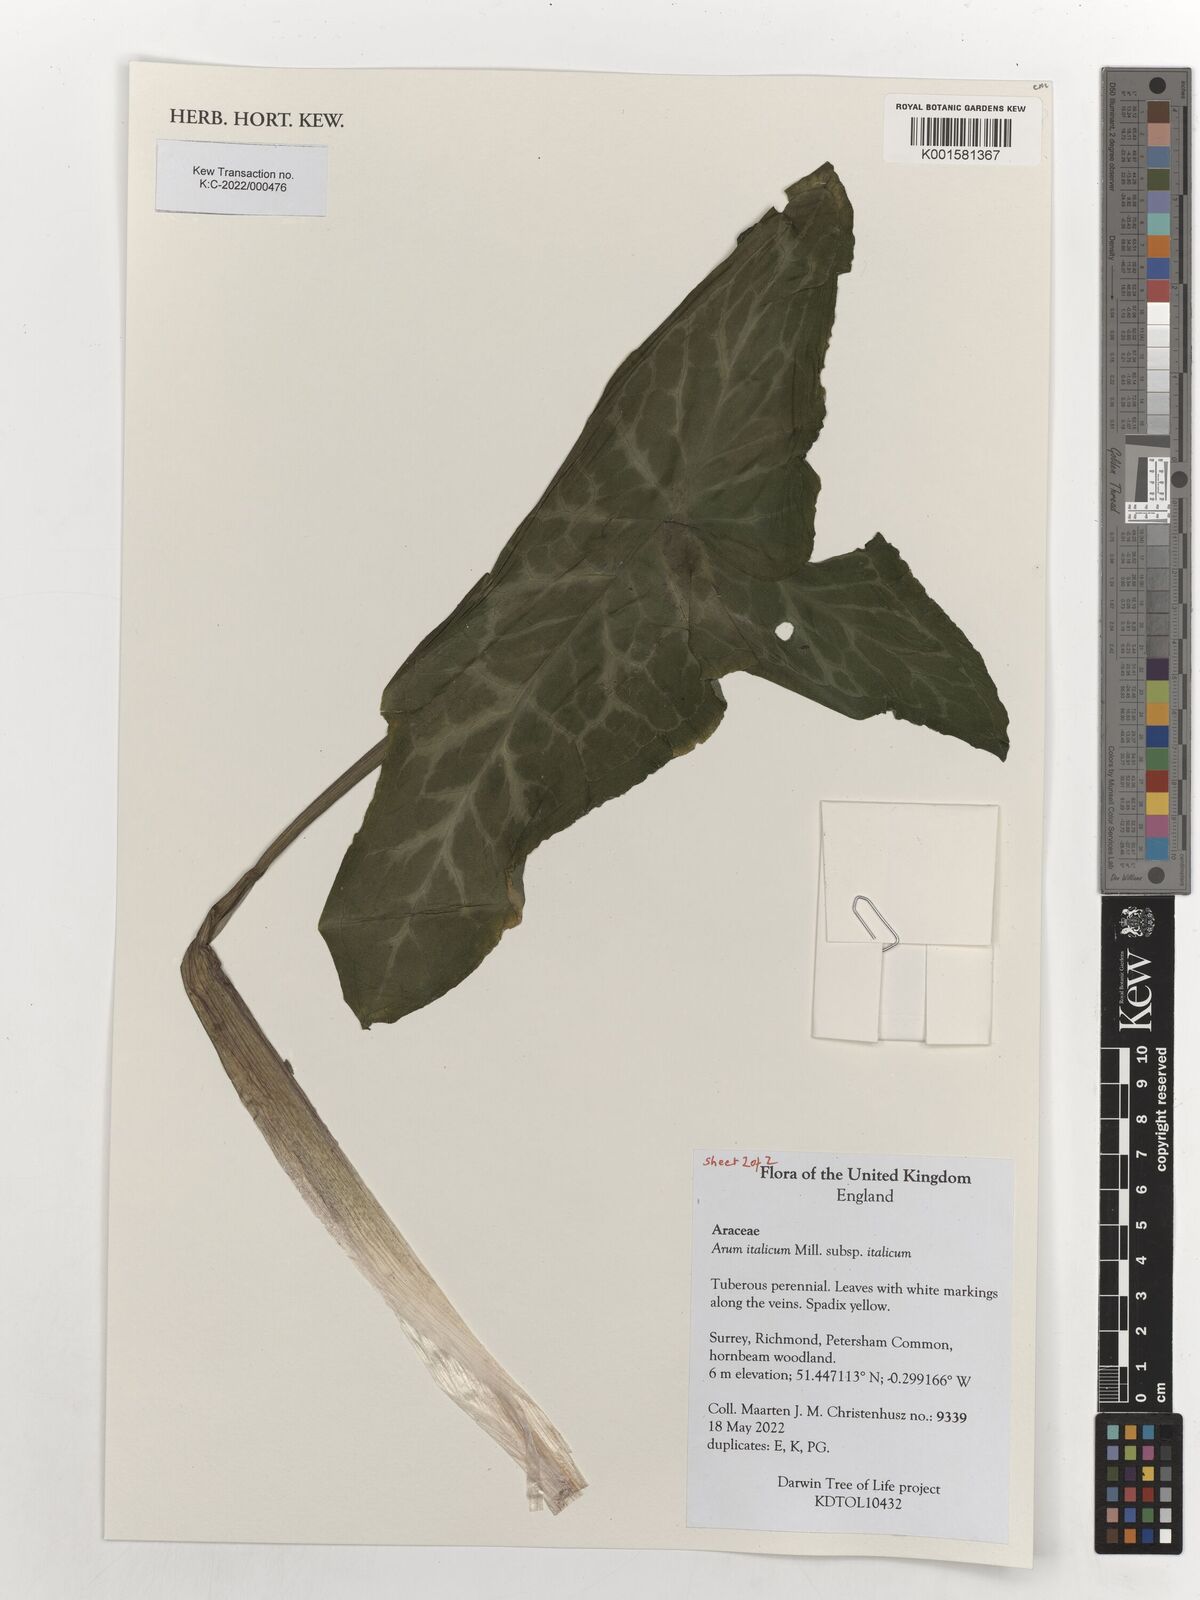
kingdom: Plantae
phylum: Tracheophyta
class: Liliopsida
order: Alismatales
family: Araceae
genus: Arum
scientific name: Arum italicum
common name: Italian lords-and-ladies
